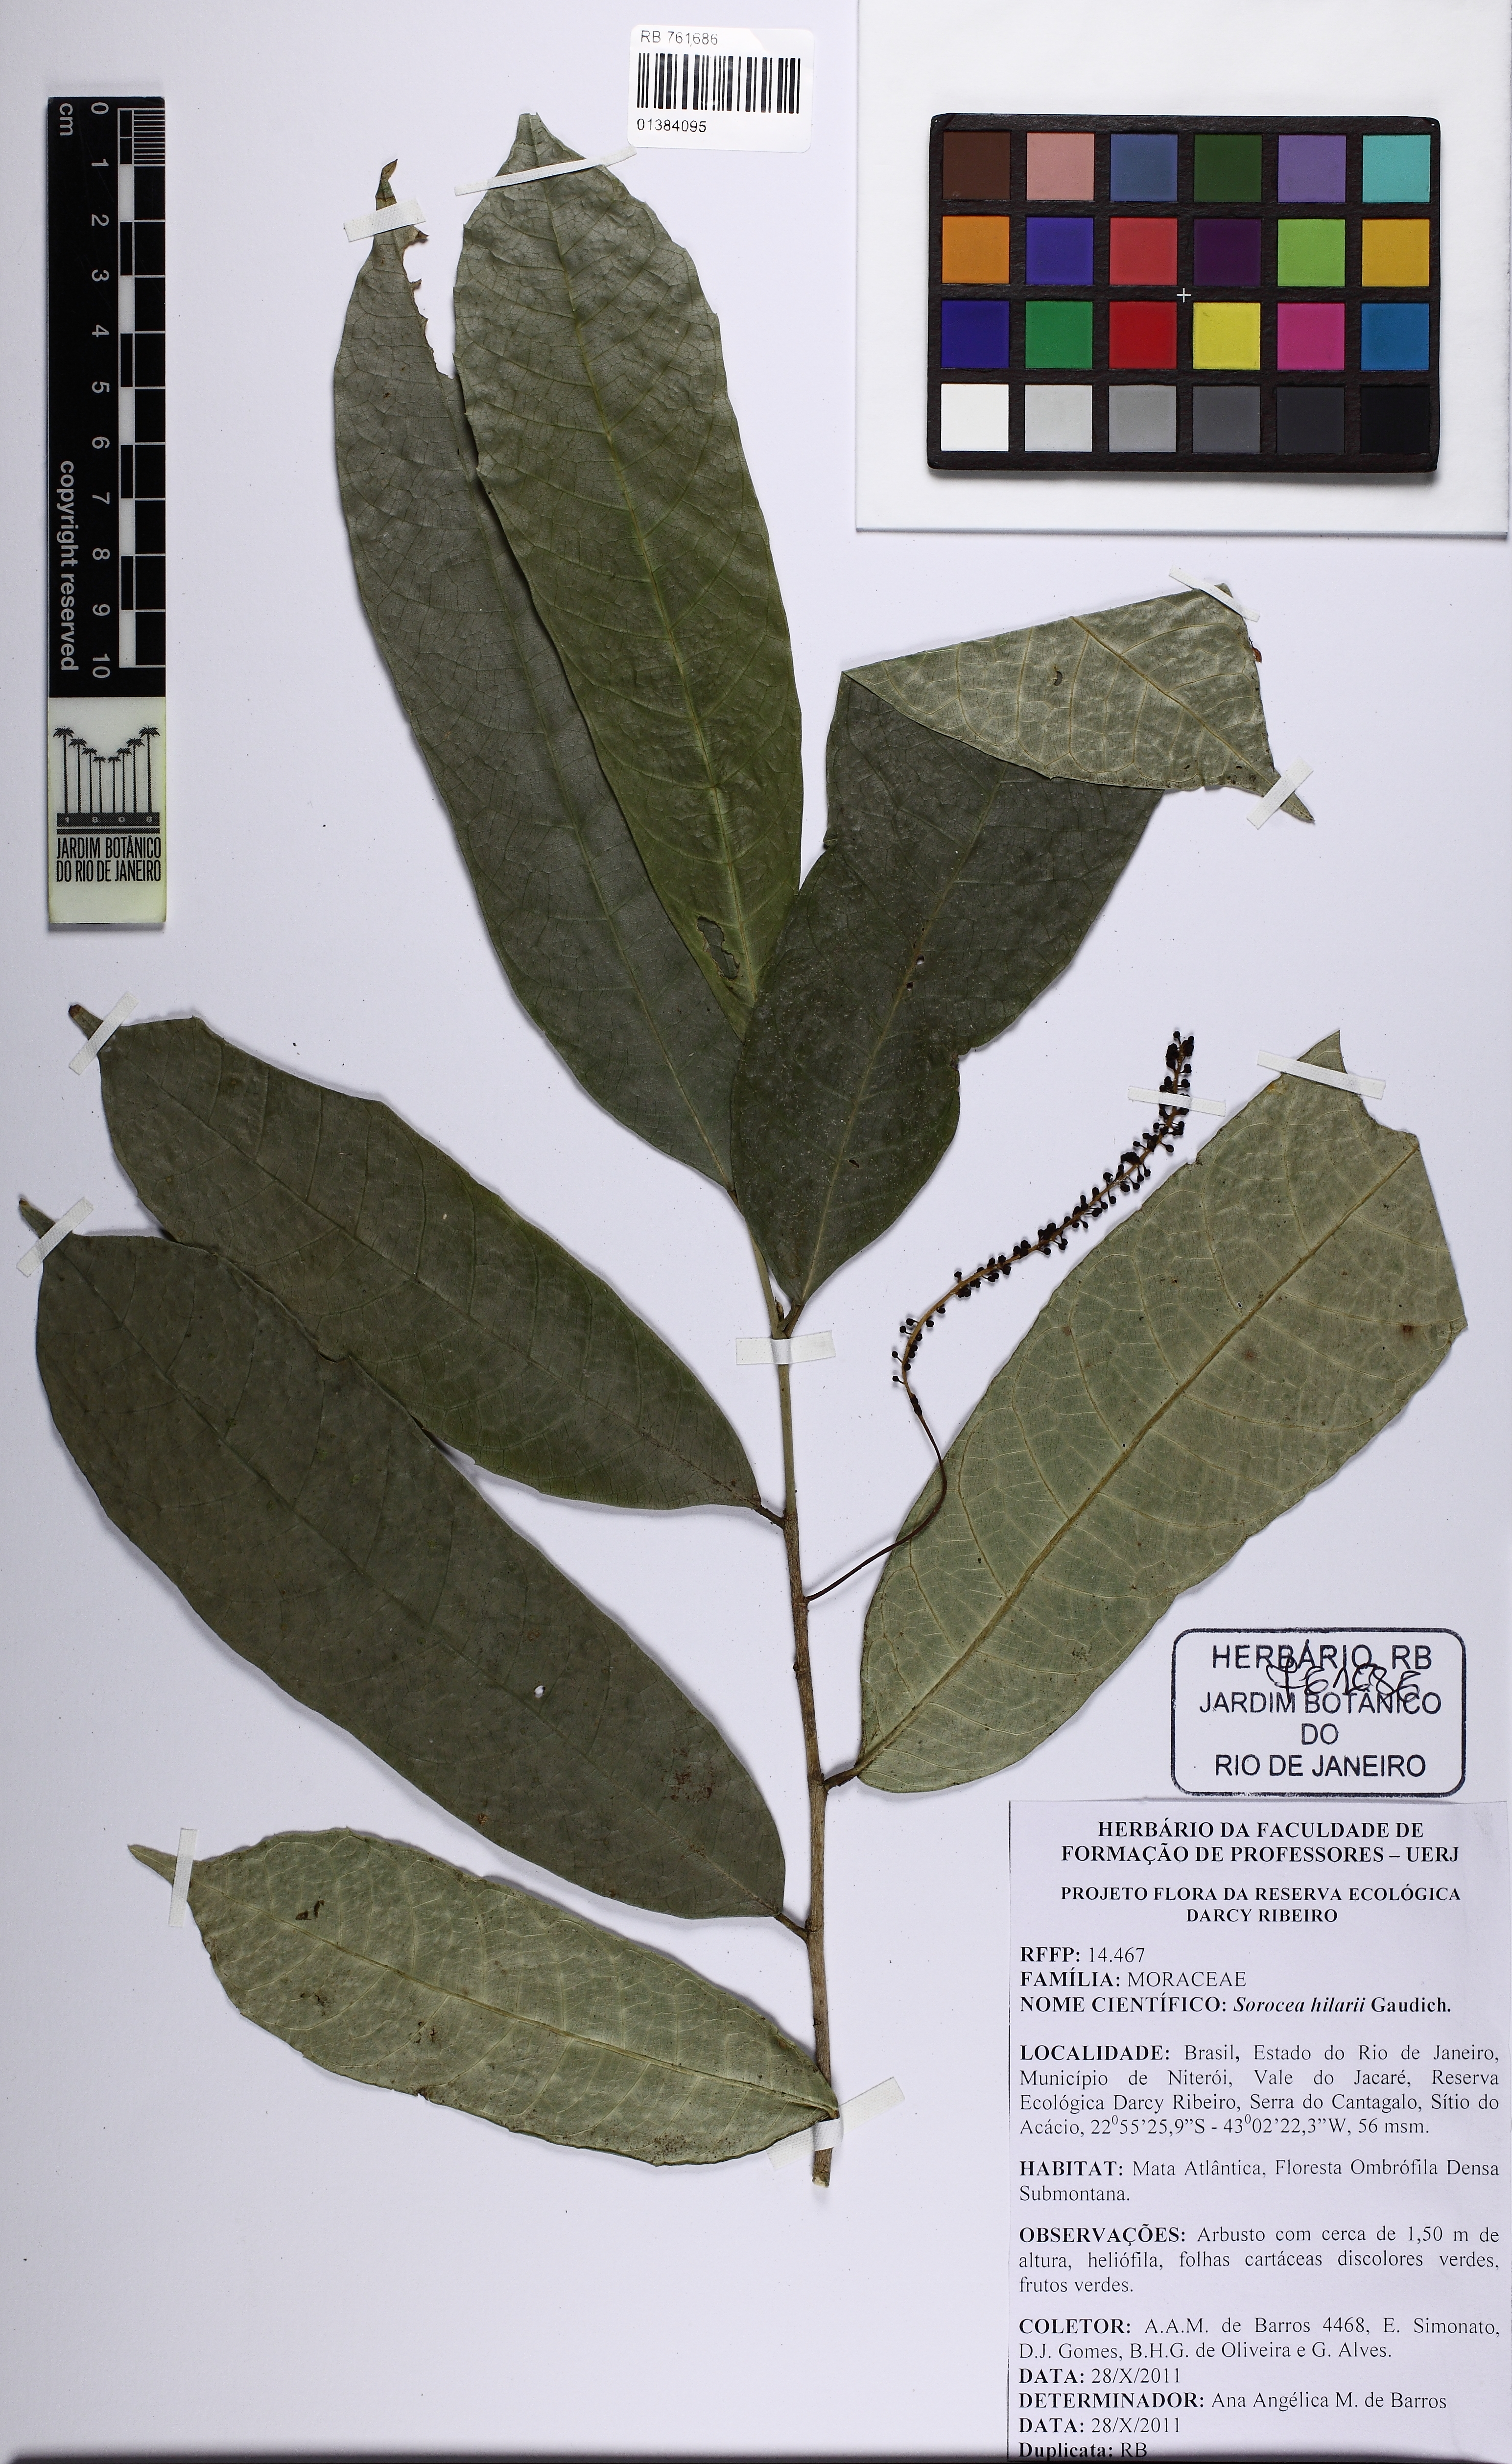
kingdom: Plantae
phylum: Tracheophyta
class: Magnoliopsida
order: Rosales
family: Moraceae
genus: Sorocea
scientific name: Sorocea hilarii
